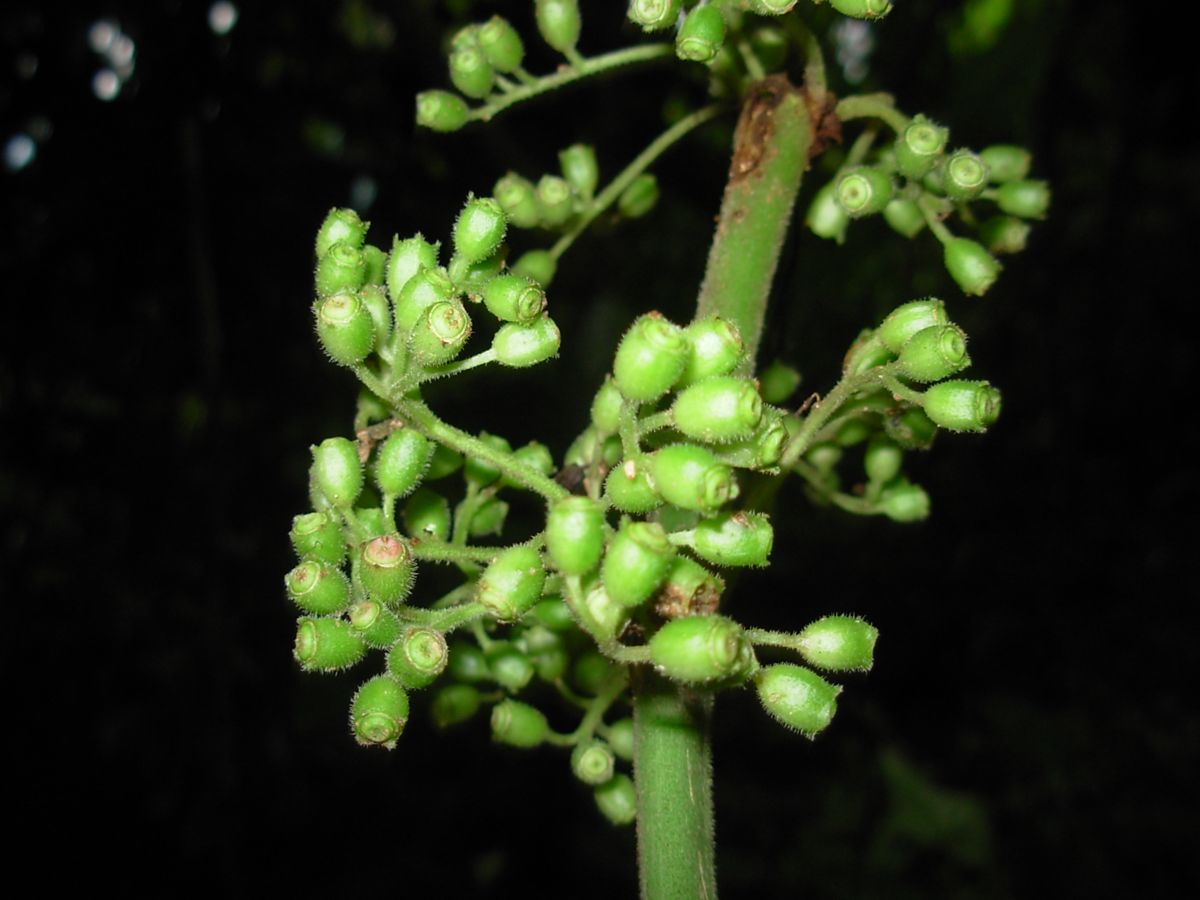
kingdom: Plantae
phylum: Tracheophyta
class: Magnoliopsida
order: Gentianales
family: Rubiaceae
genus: Hoffmannia
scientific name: Hoffmannia regalis
